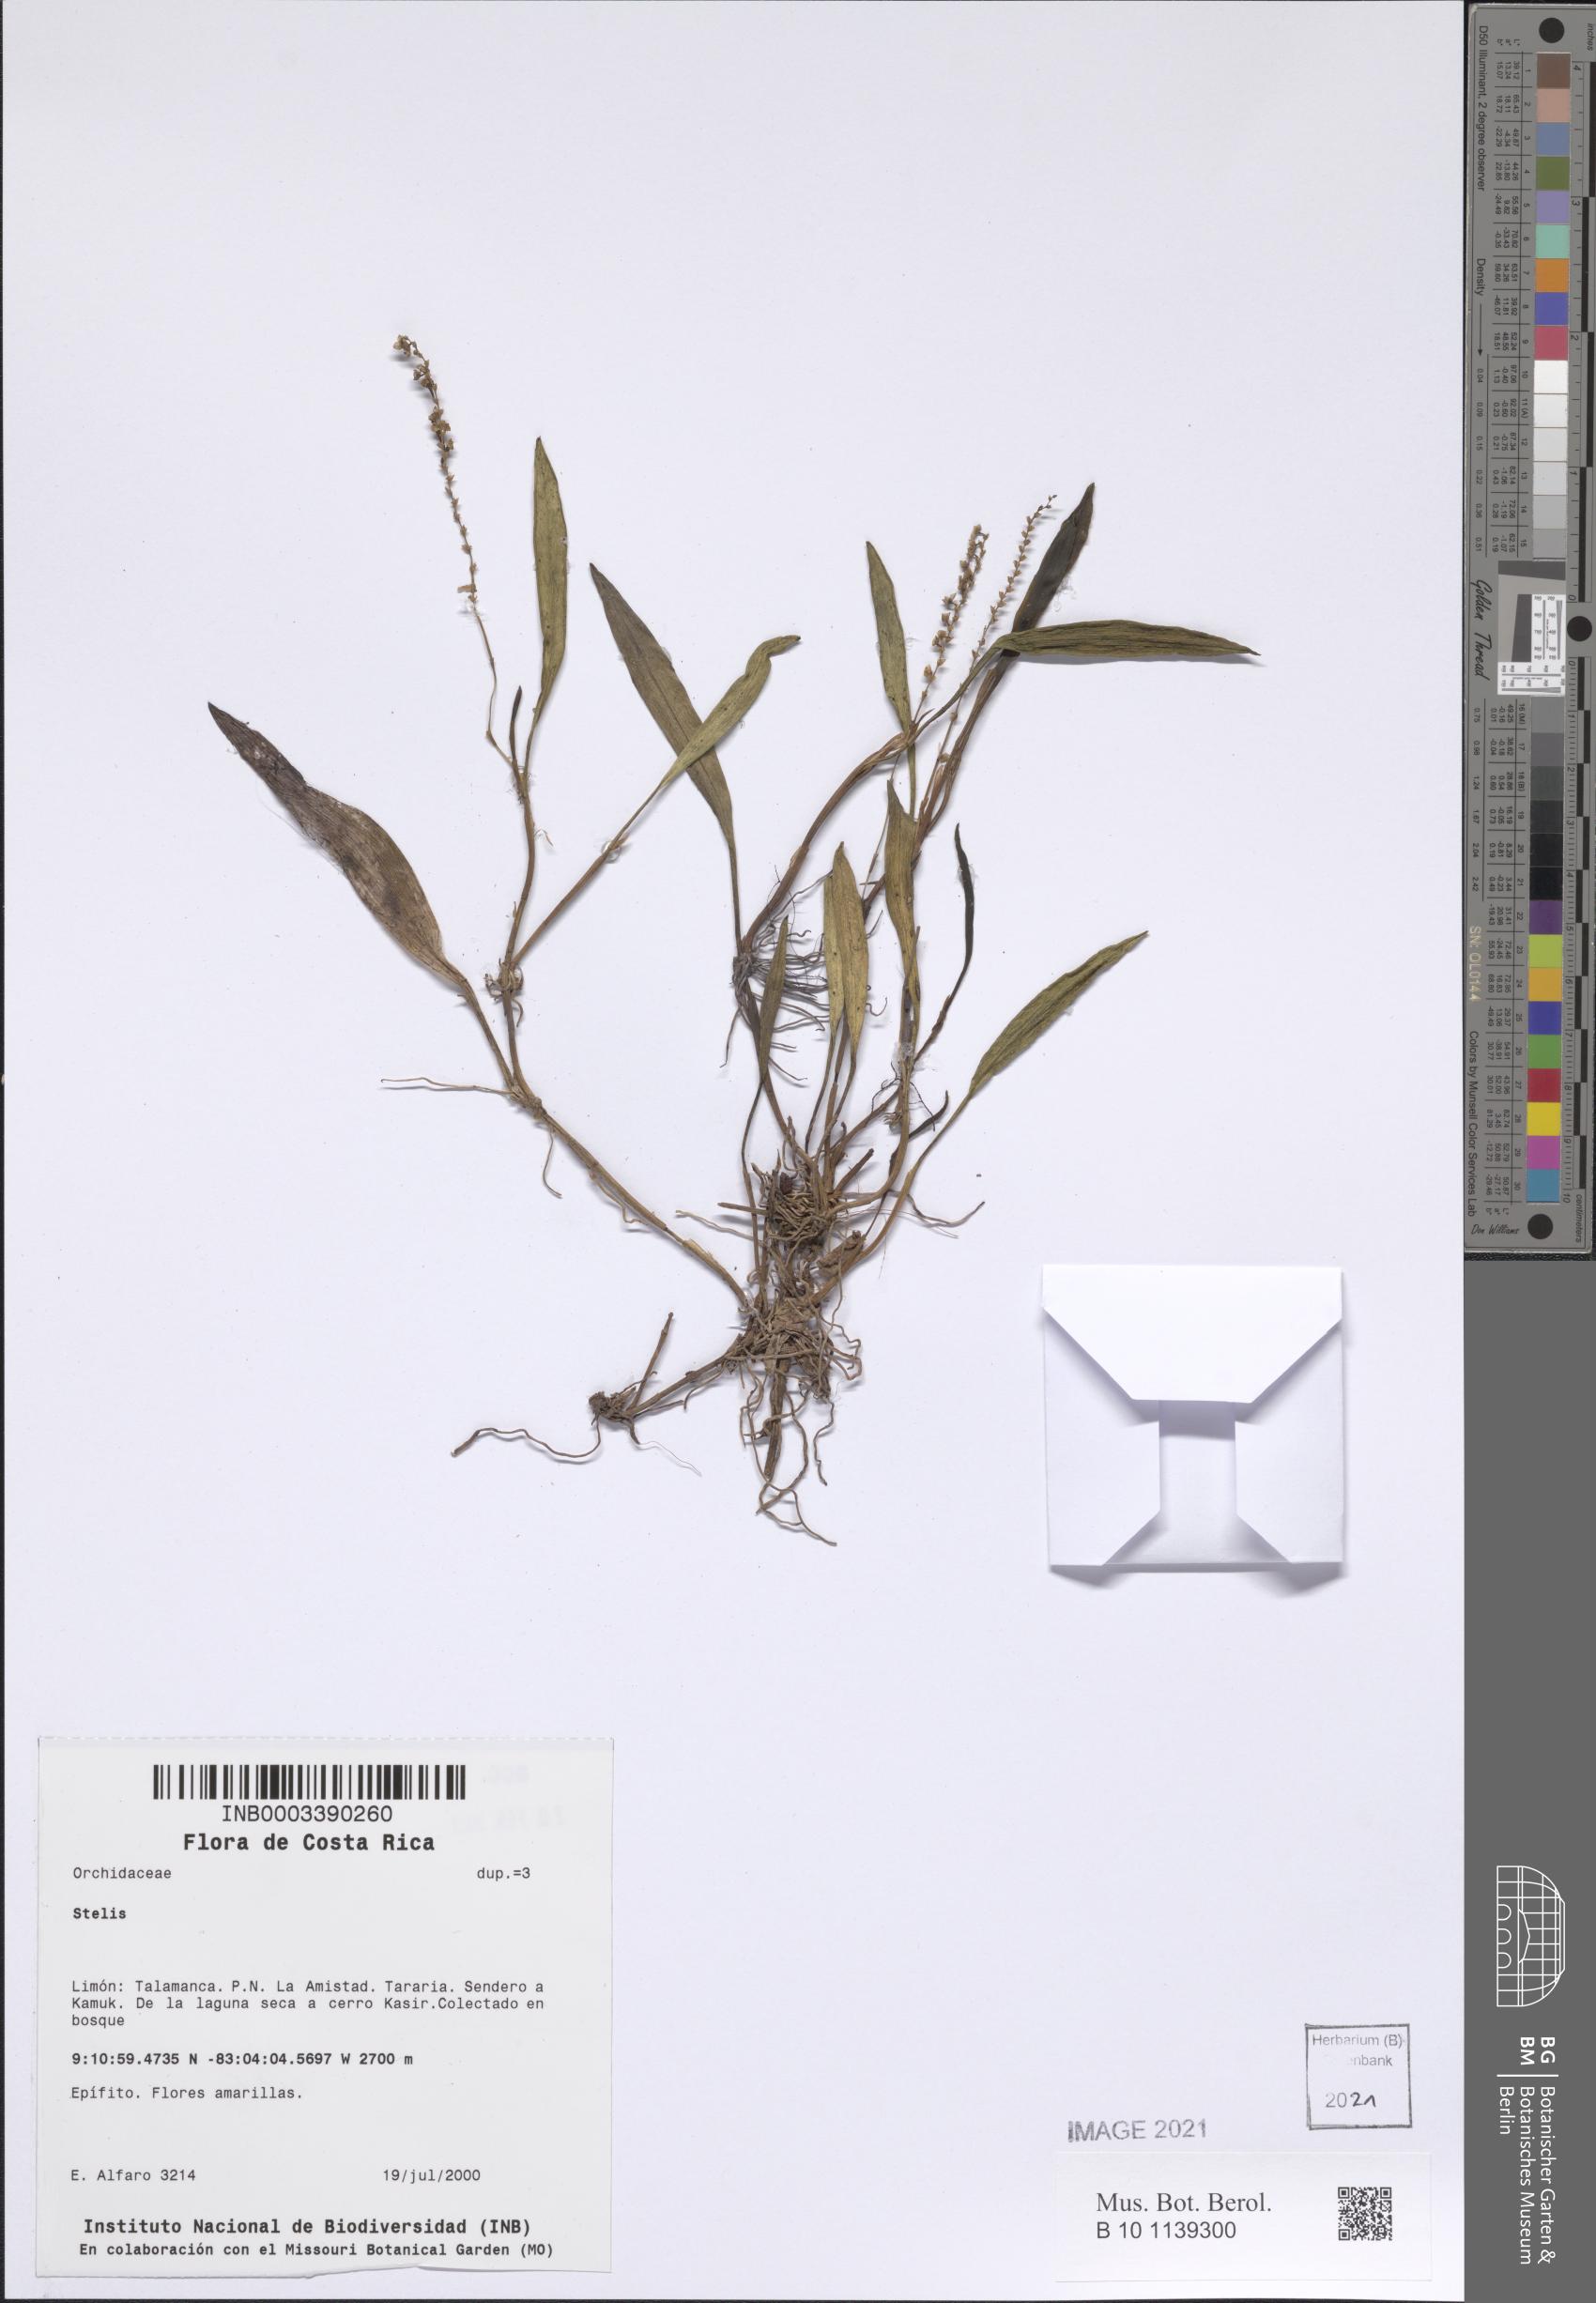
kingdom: Plantae
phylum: Tracheophyta
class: Liliopsida
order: Asparagales
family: Orchidaceae
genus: Stelis
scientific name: Stelis
